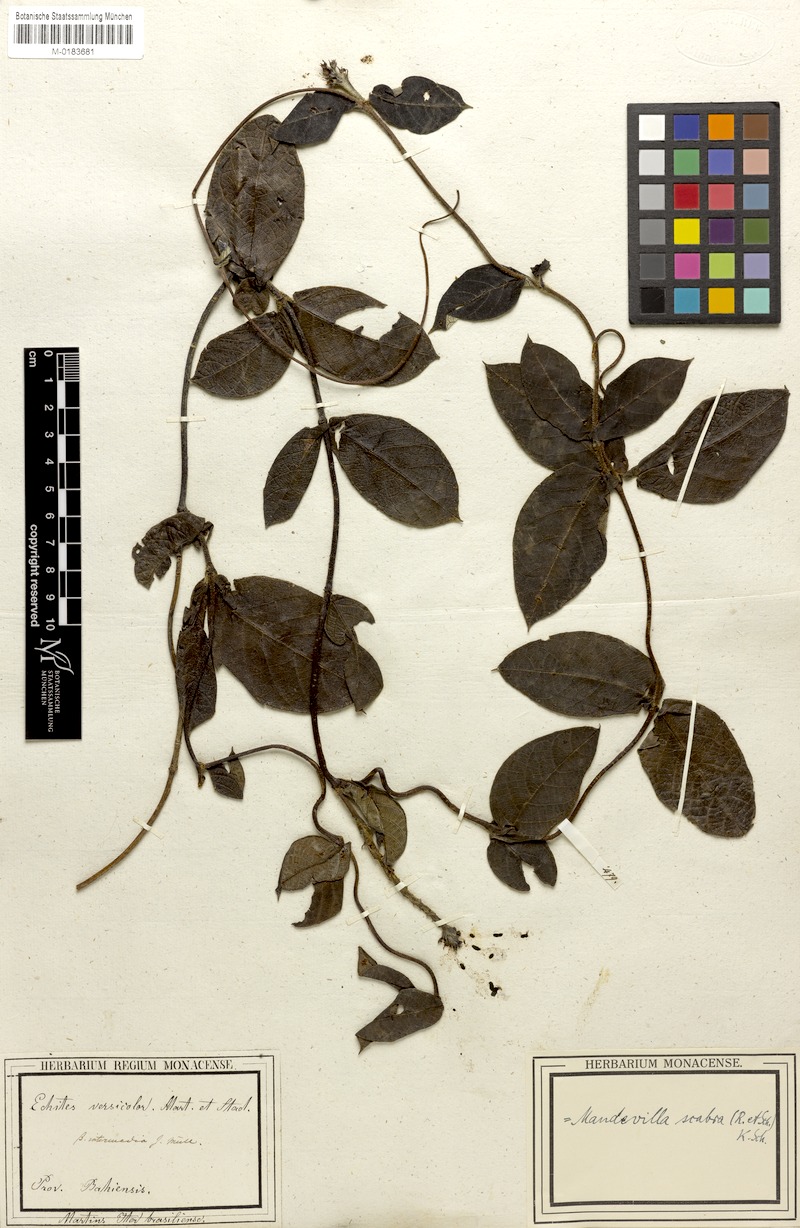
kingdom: Plantae
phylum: Tracheophyta
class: Magnoliopsida
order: Gentianales
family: Apocynaceae
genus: Mandevilla
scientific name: Mandevilla scabra
